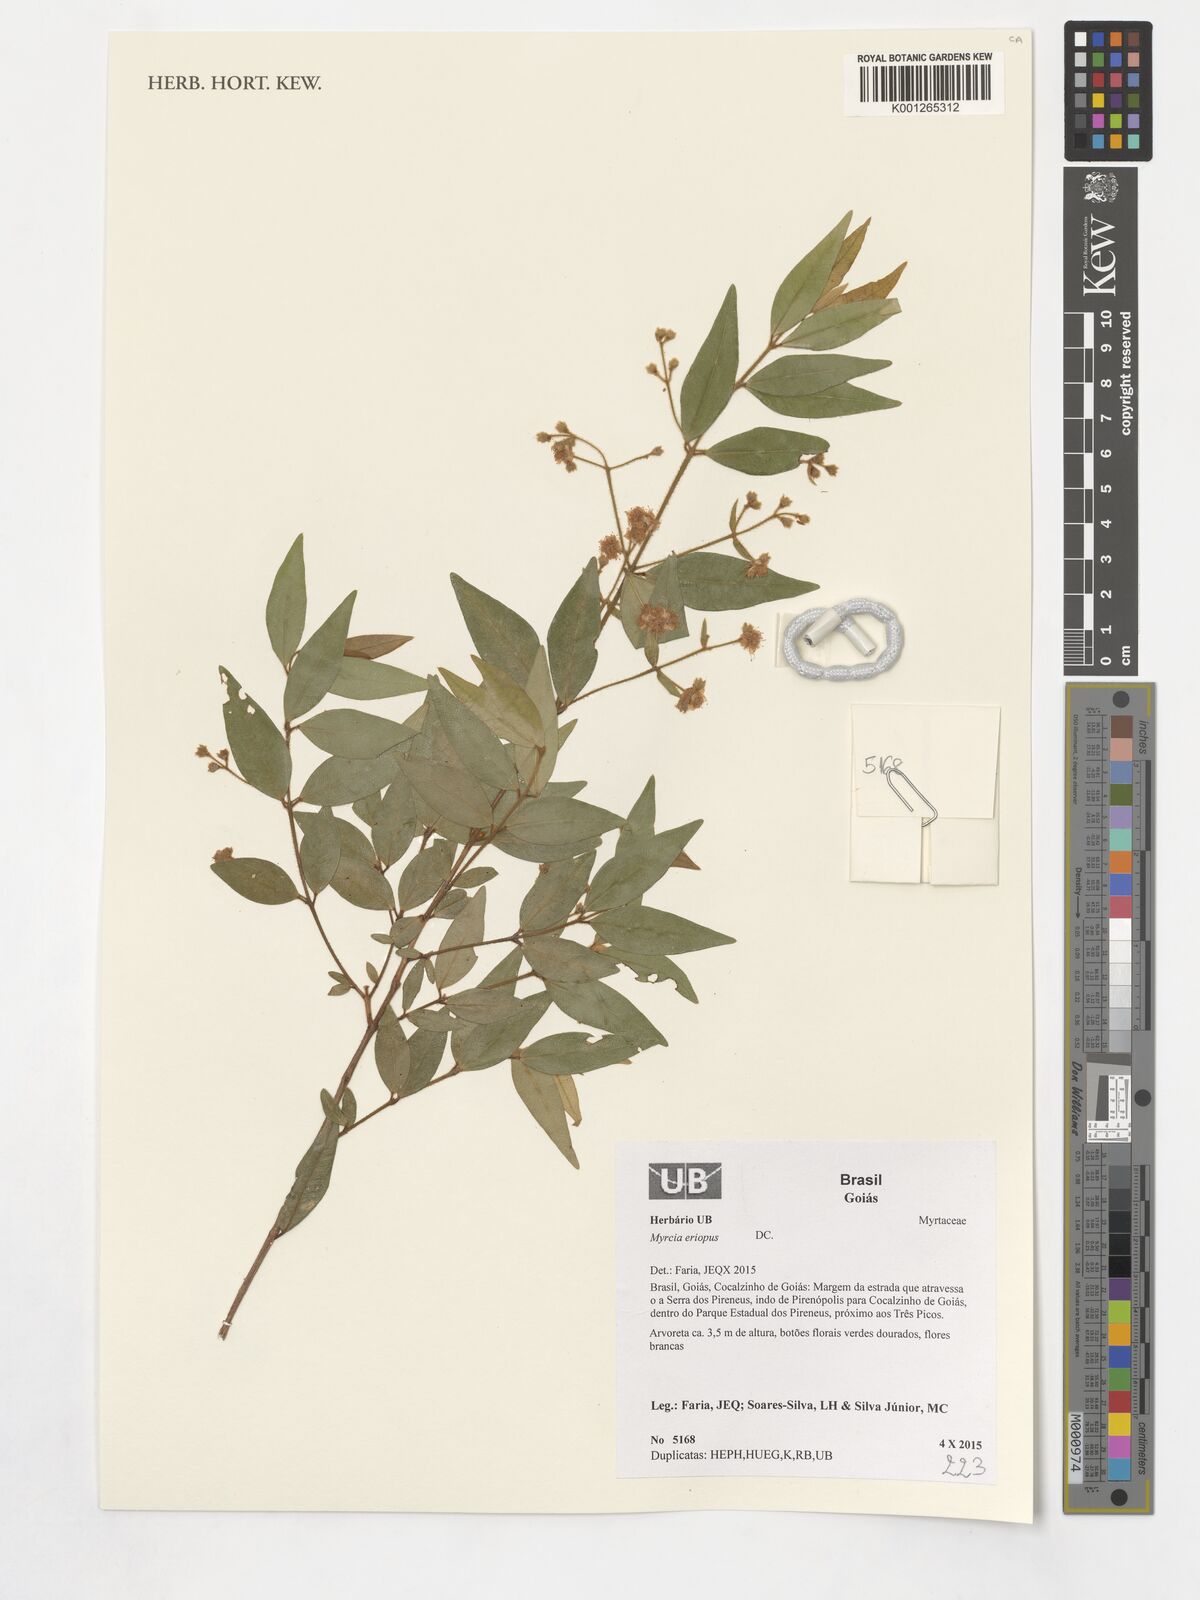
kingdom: Plantae
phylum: Tracheophyta
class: Magnoliopsida
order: Myrtales
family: Myrtaceae
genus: Myrcia
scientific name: Myrcia eriopus
